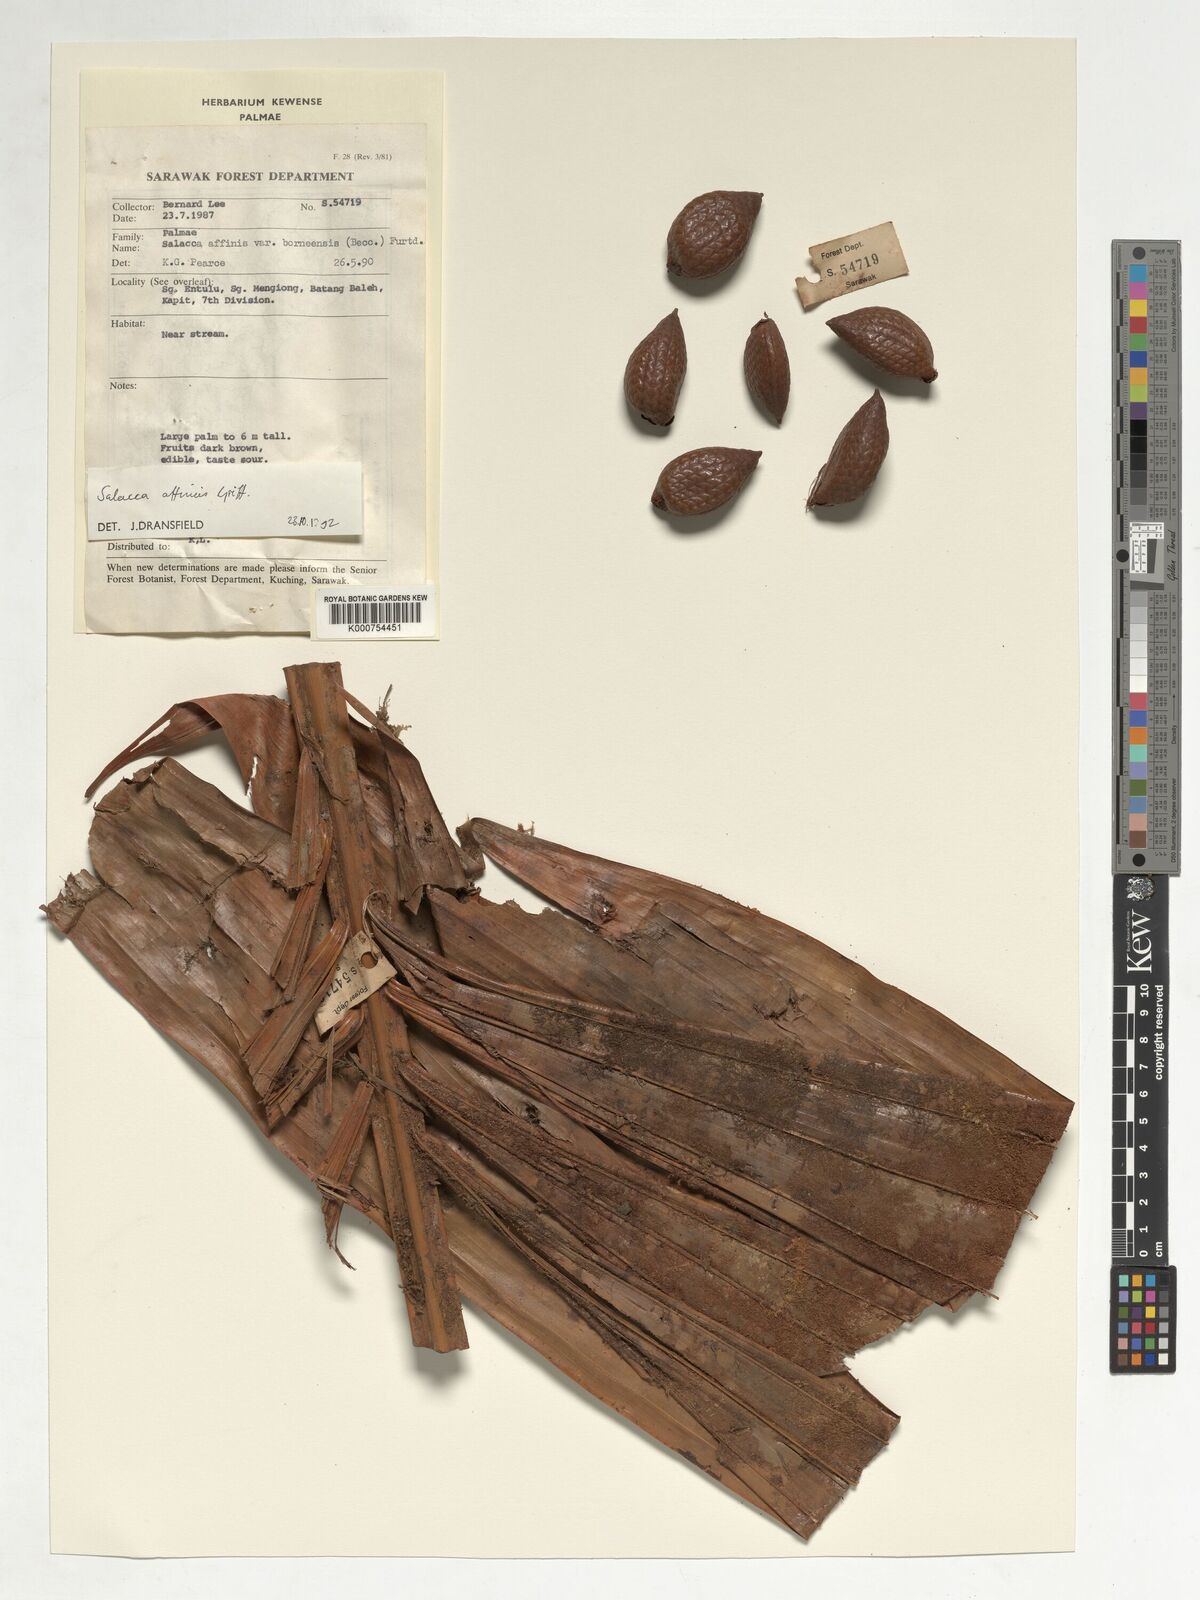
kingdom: Plantae
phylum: Tracheophyta
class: Liliopsida
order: Arecales
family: Arecaceae
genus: Salacca
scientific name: Salacca affinis
